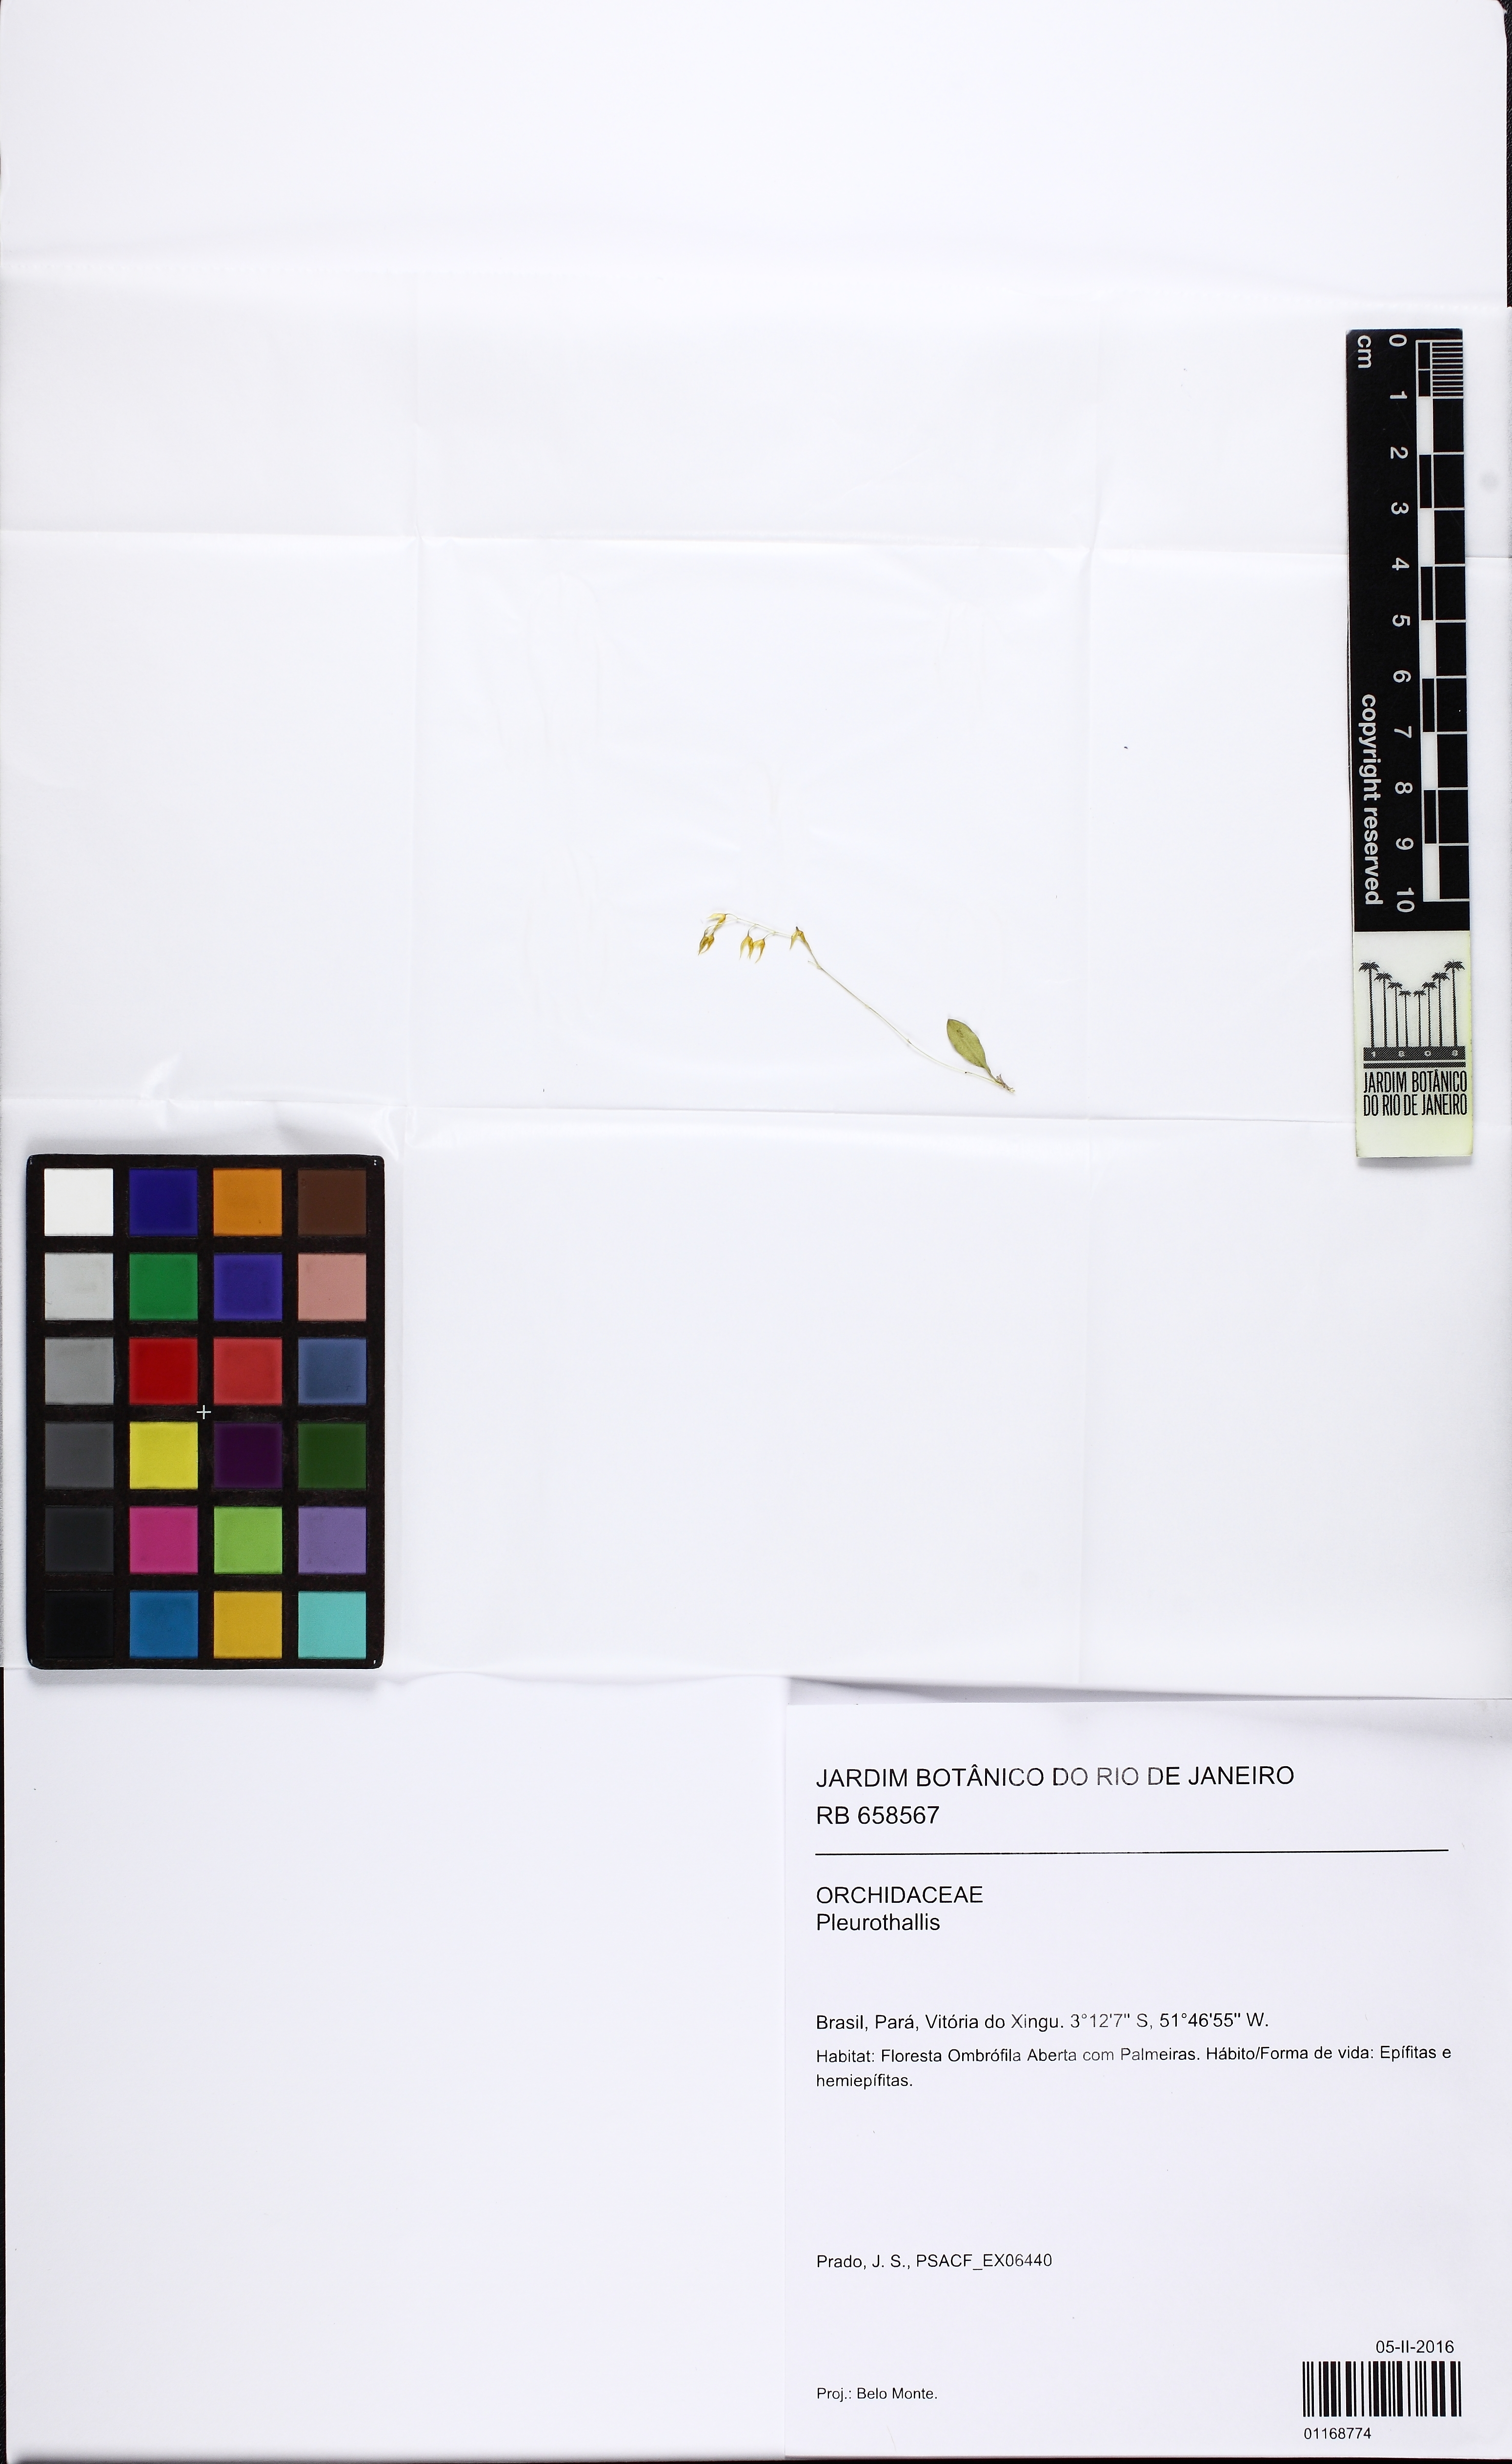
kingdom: Plantae
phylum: Tracheophyta
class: Liliopsida
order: Asparagales
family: Orchidaceae
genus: Specklinia
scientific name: Specklinia
